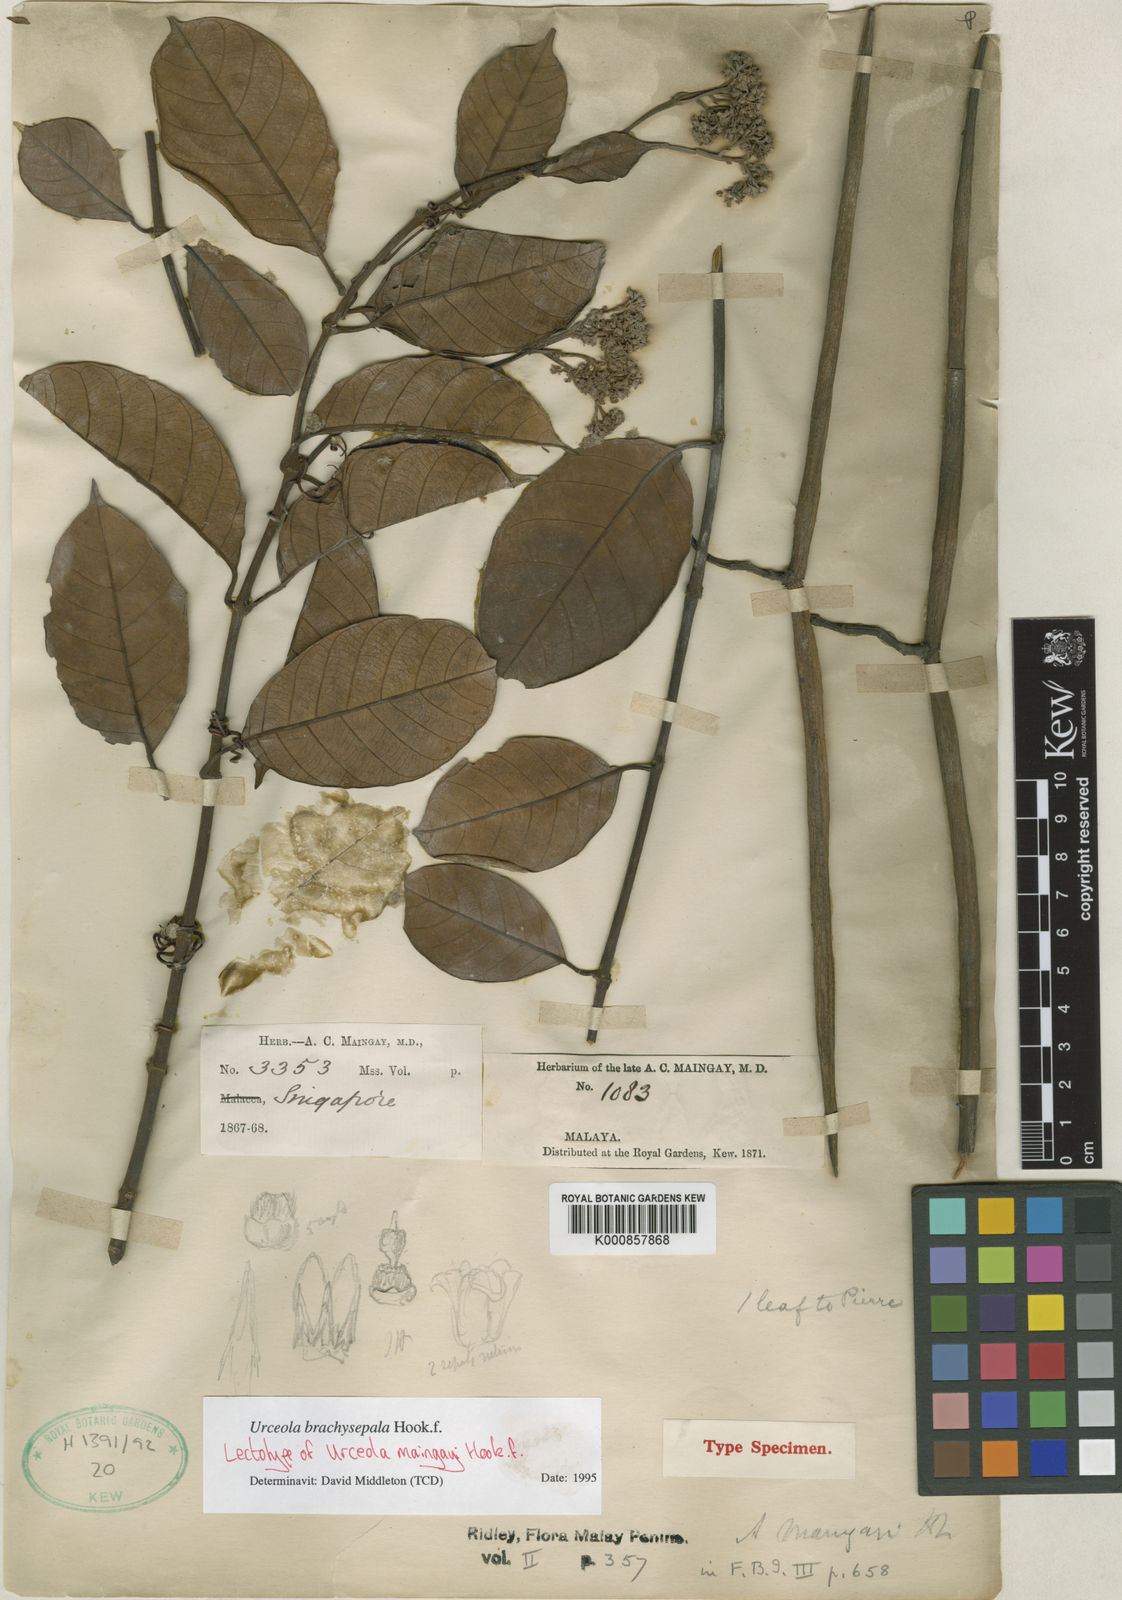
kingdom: Plantae
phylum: Tracheophyta
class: Magnoliopsida
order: Gentianales
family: Apocynaceae
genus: Urceola
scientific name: Urceola brachysepala
